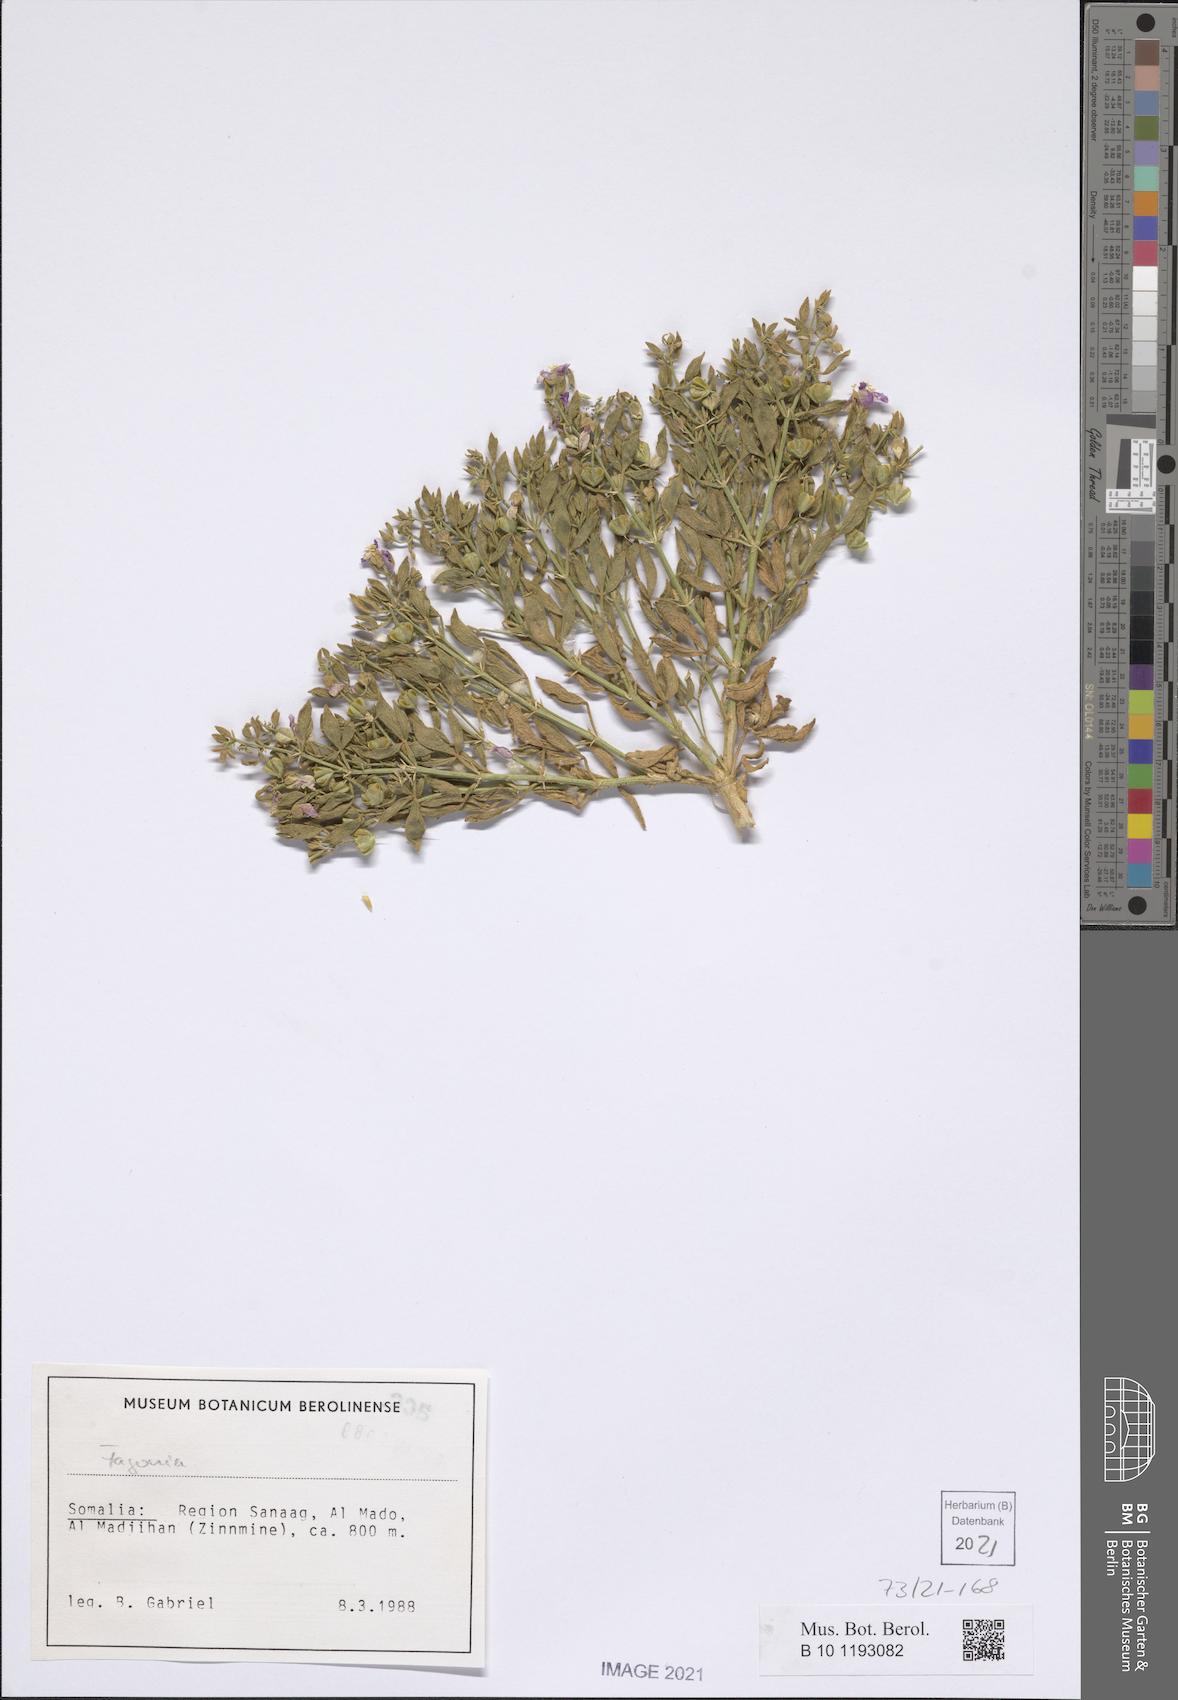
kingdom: Plantae
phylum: Tracheophyta
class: Magnoliopsida
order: Zygophyllales
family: Zygophyllaceae
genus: Fagonia
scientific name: Fagonia
